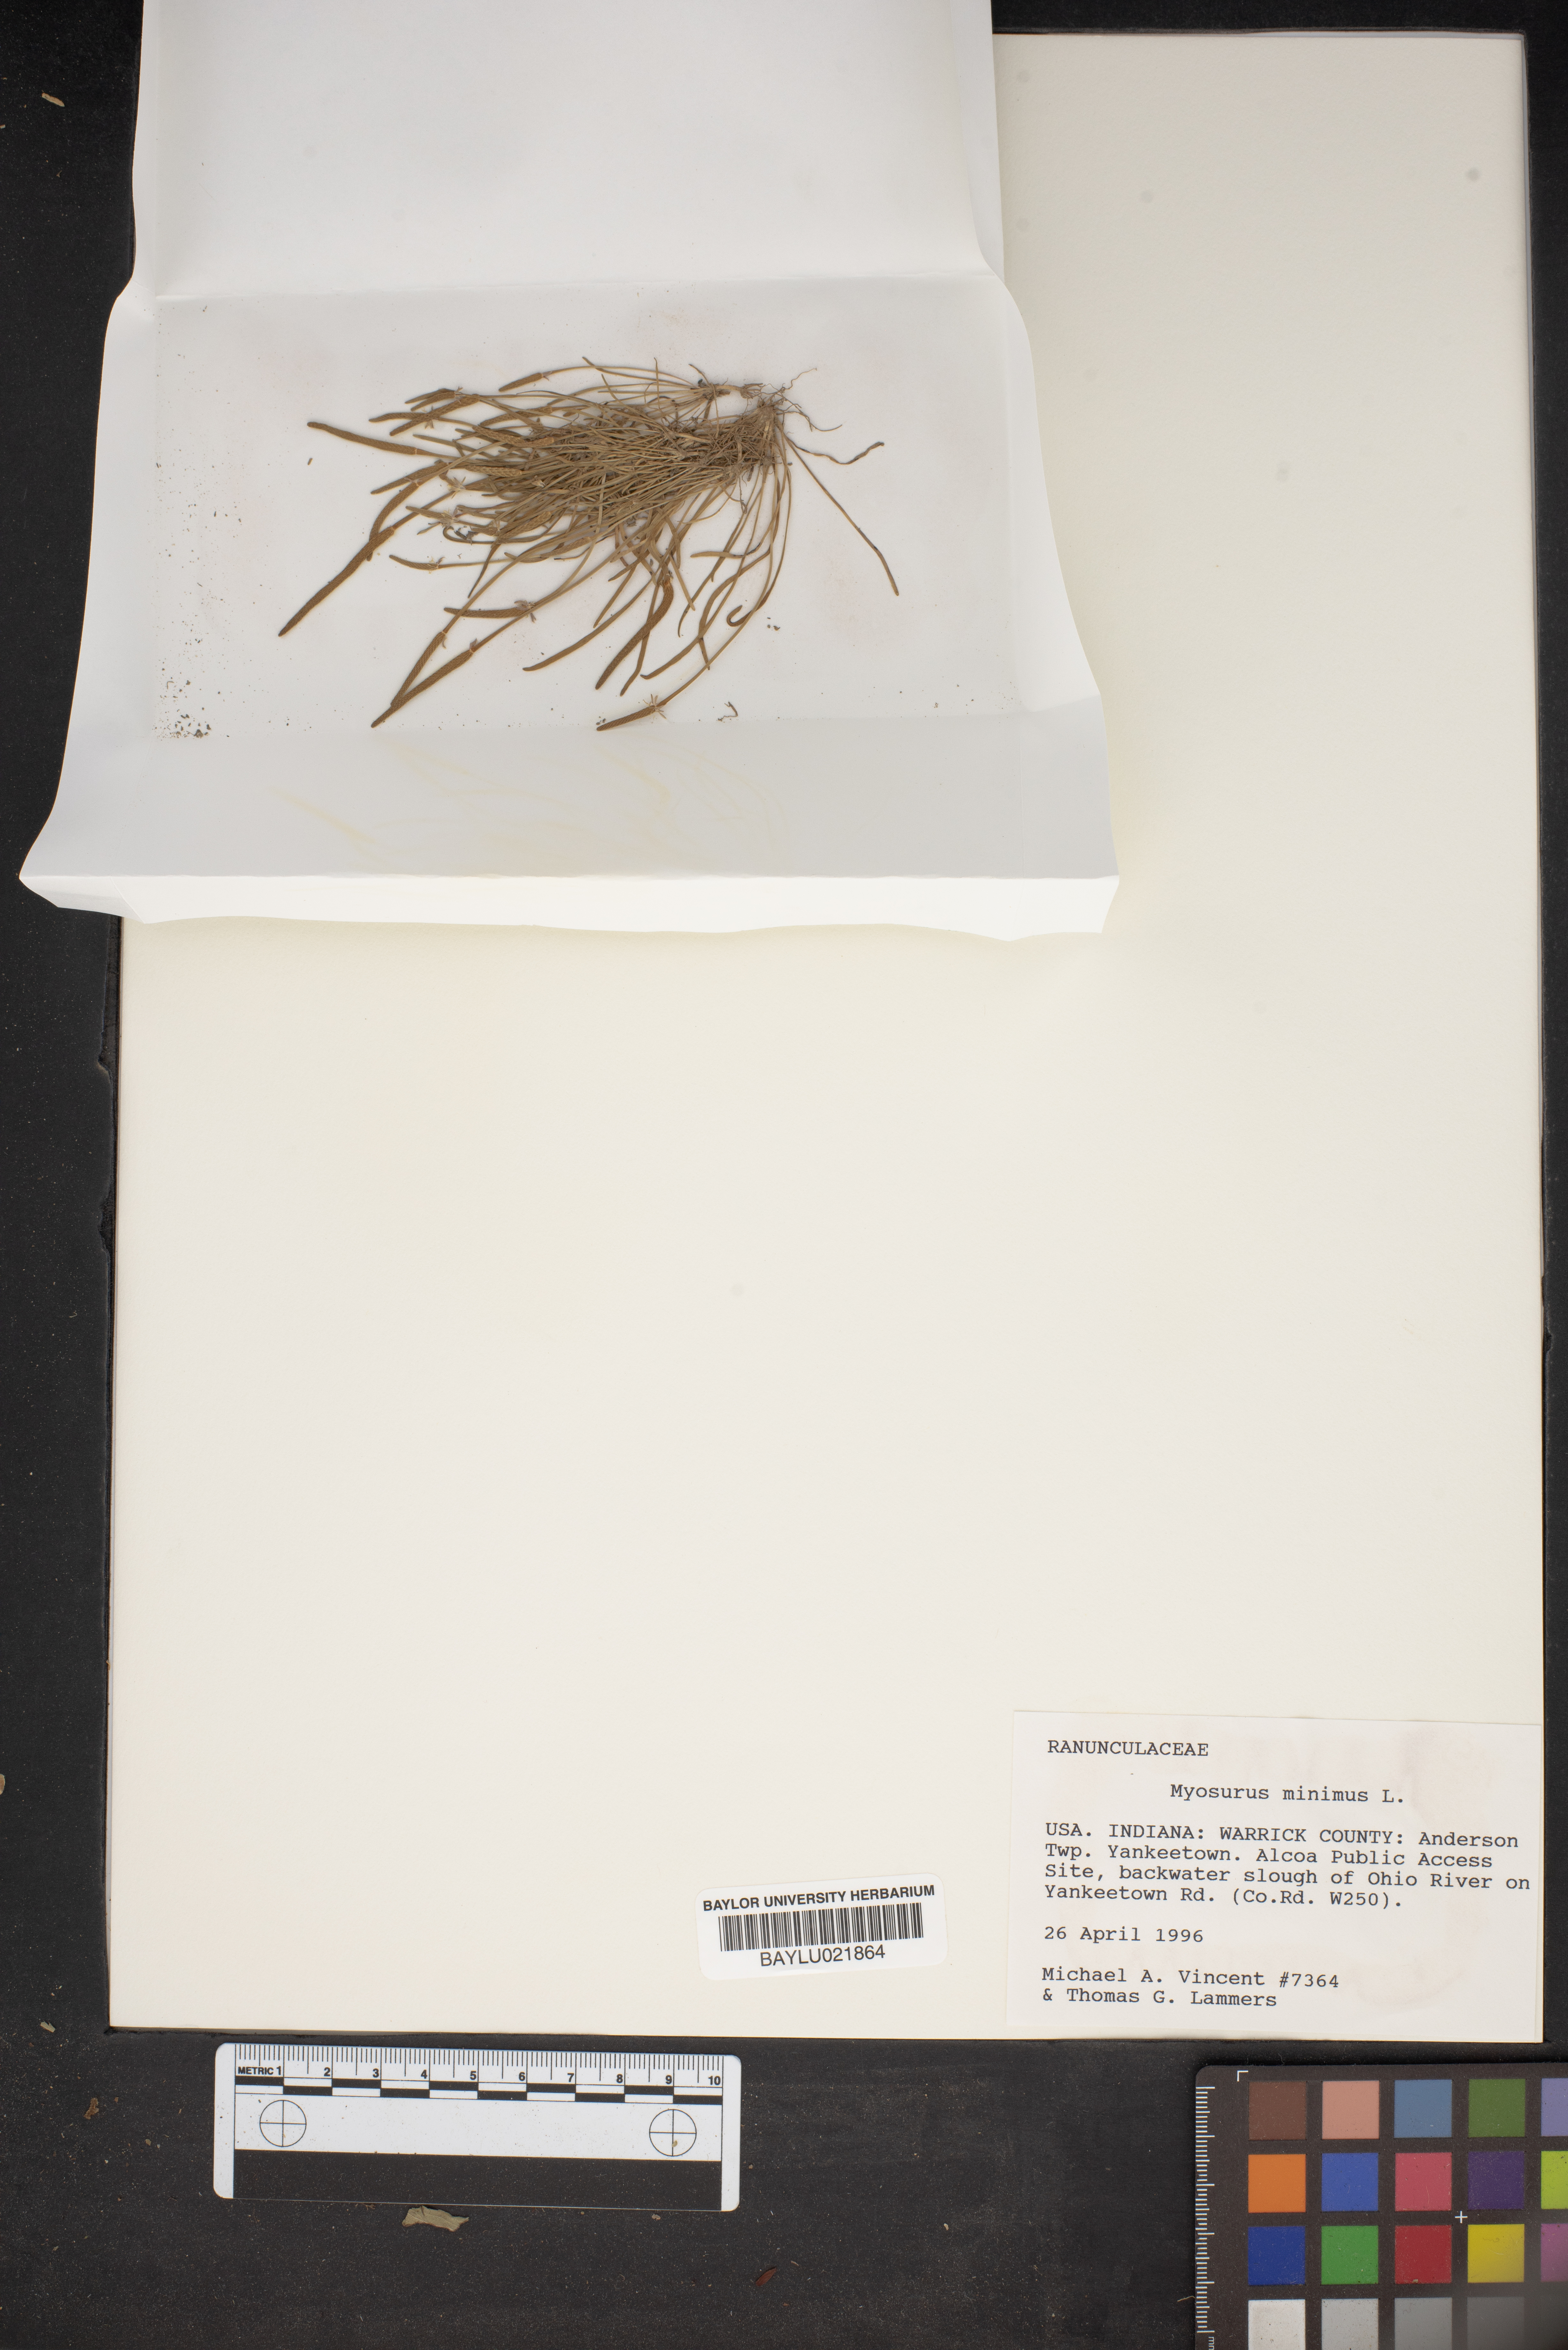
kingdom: Plantae
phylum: Tracheophyta
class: Magnoliopsida
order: Ranunculales
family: Ranunculaceae
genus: Myosurus
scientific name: Myosurus minimus
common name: Mousetail
